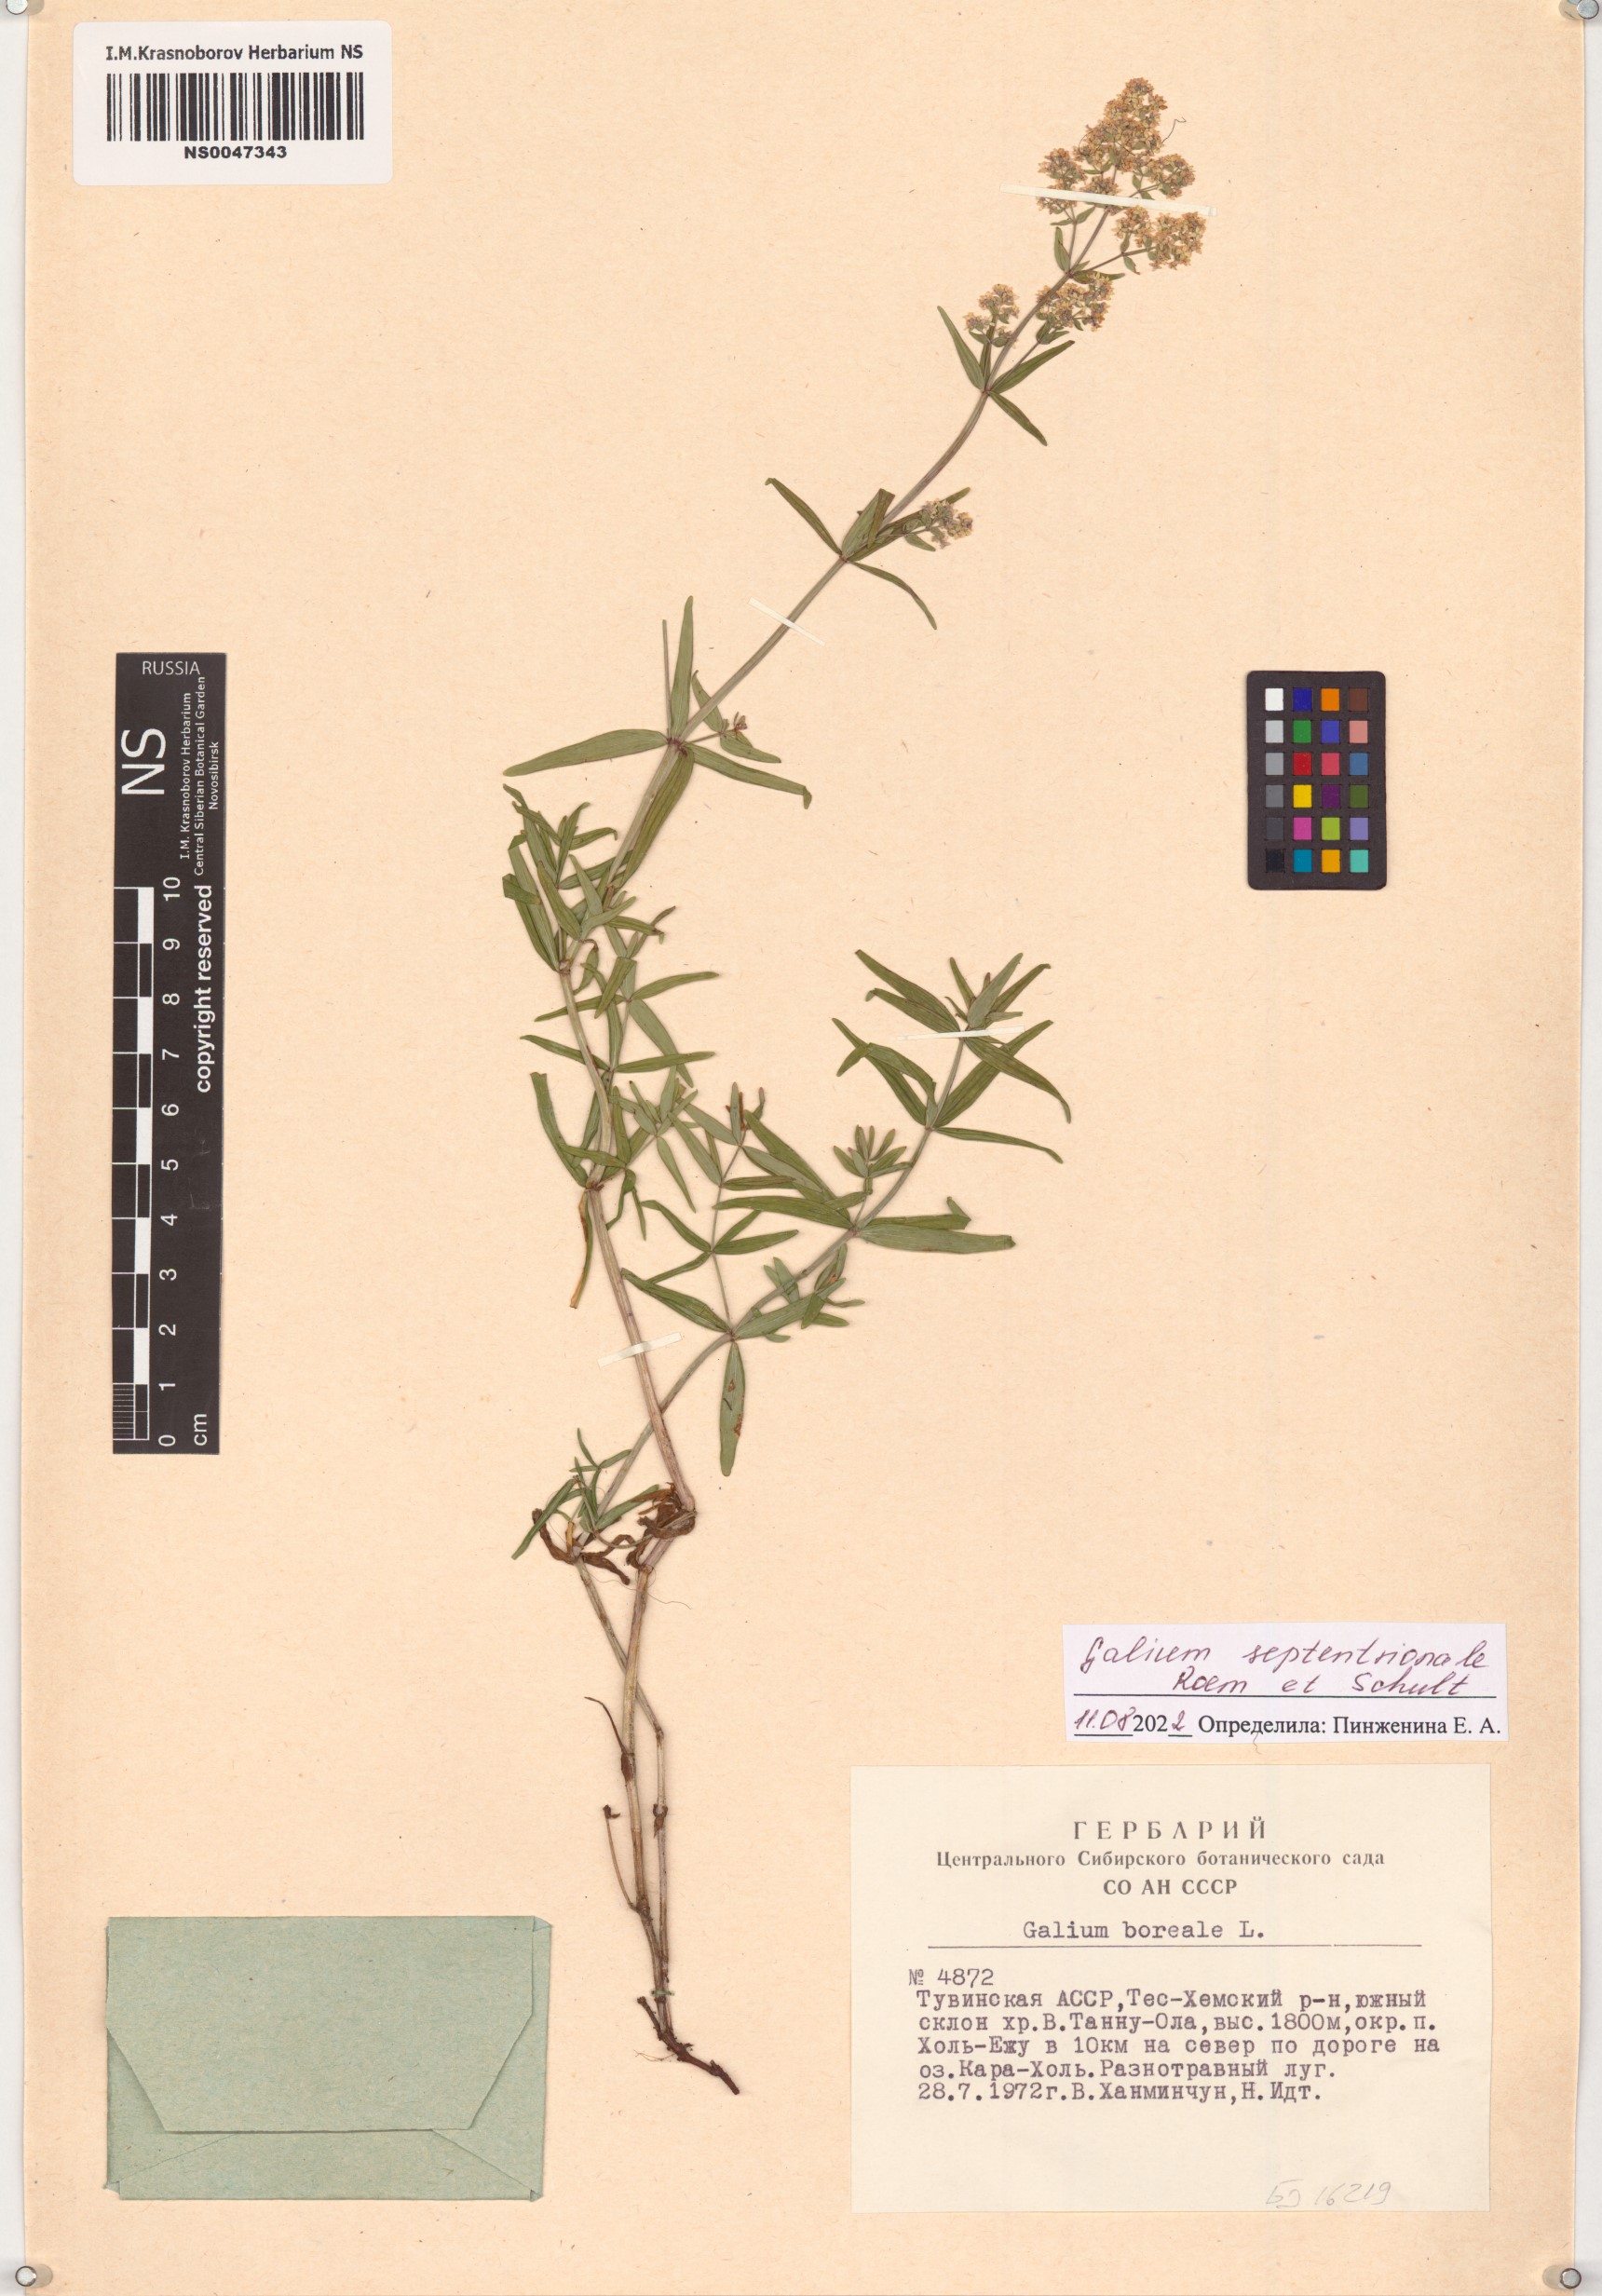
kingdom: Plantae
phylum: Tracheophyta
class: Magnoliopsida
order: Gentianales
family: Rubiaceae
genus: Galium
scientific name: Galium boreale
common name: Northern bedstraw
